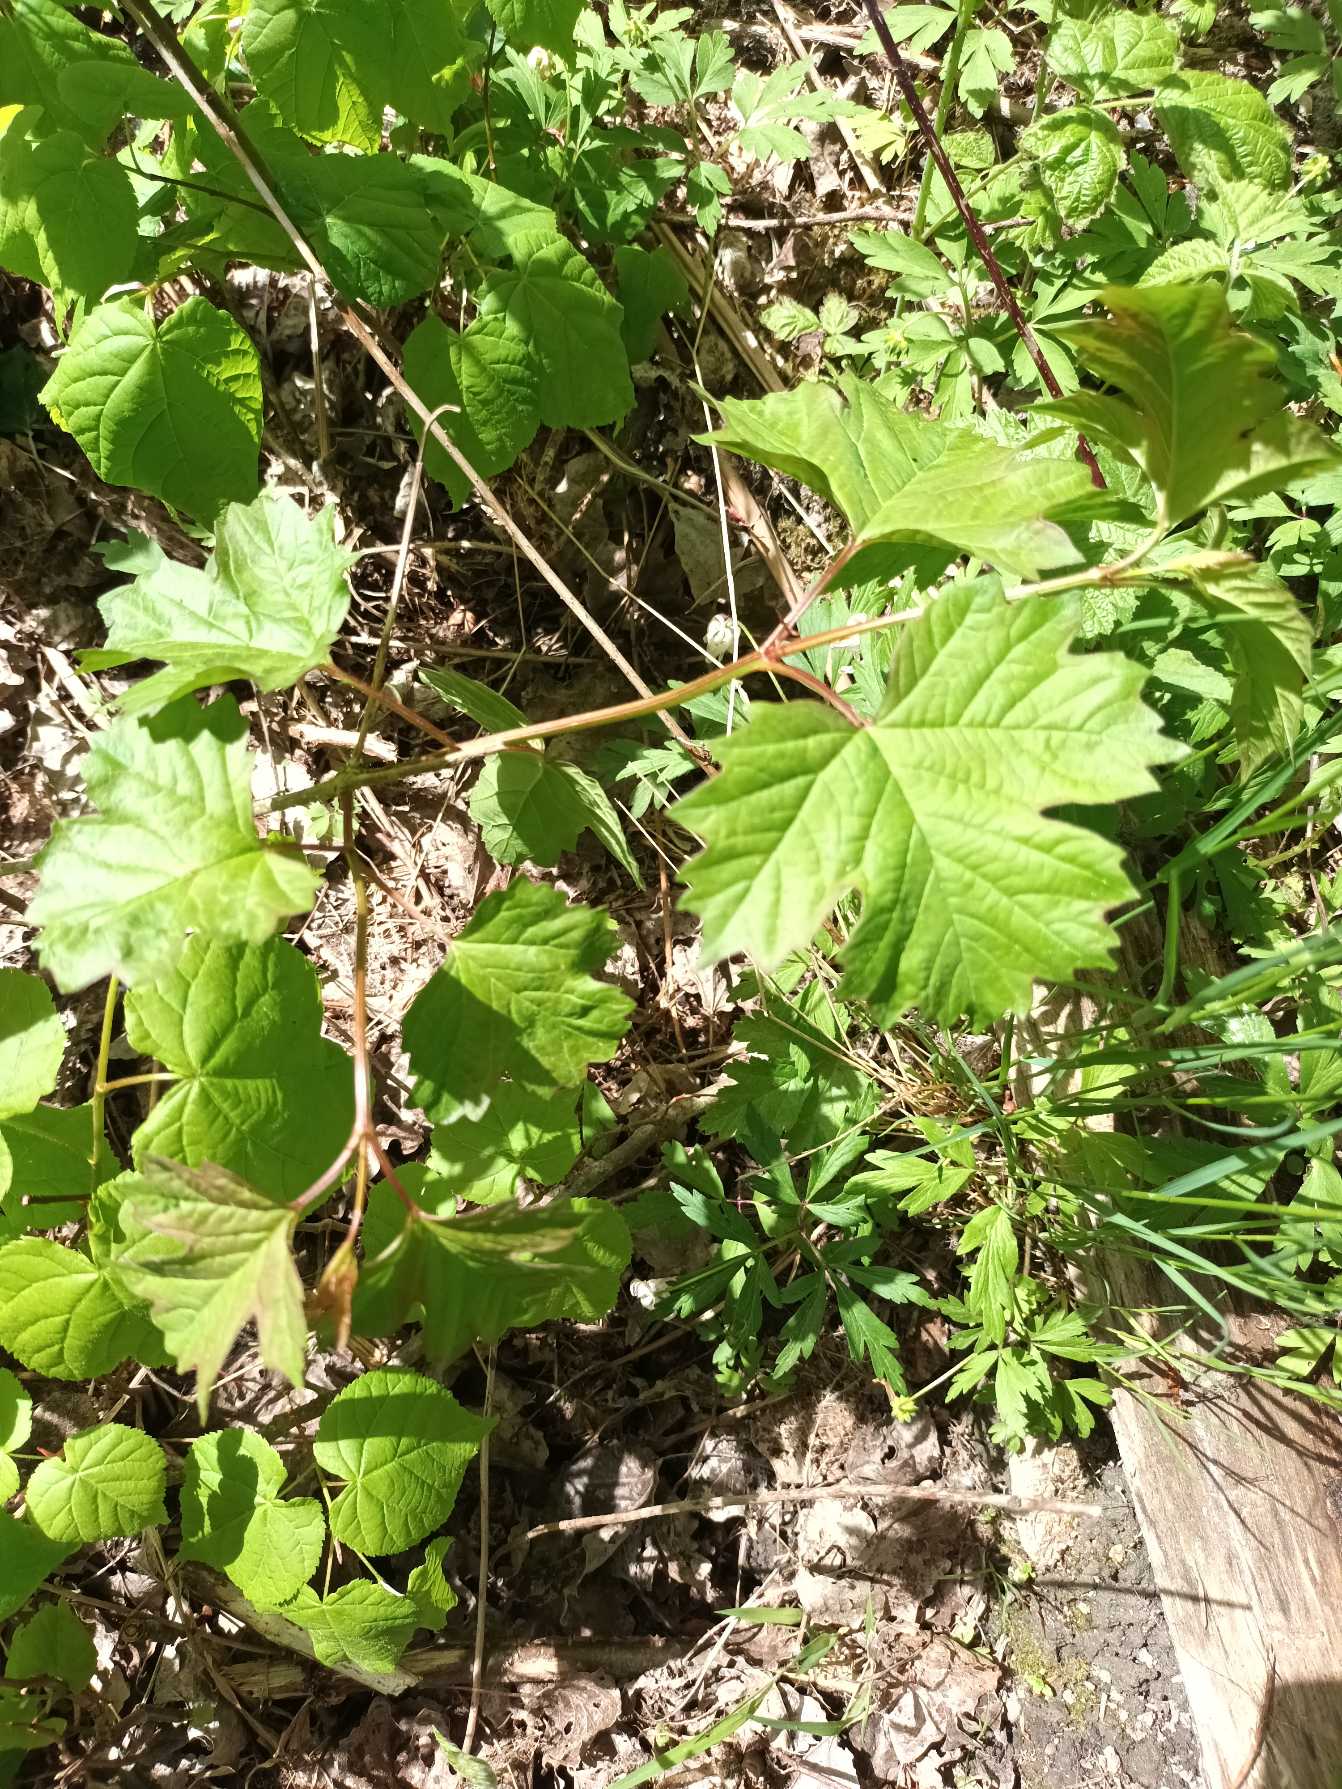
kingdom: Plantae
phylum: Tracheophyta
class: Magnoliopsida
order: Dipsacales
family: Viburnaceae
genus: Viburnum
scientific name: Viburnum opulus
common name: Kvalkved
